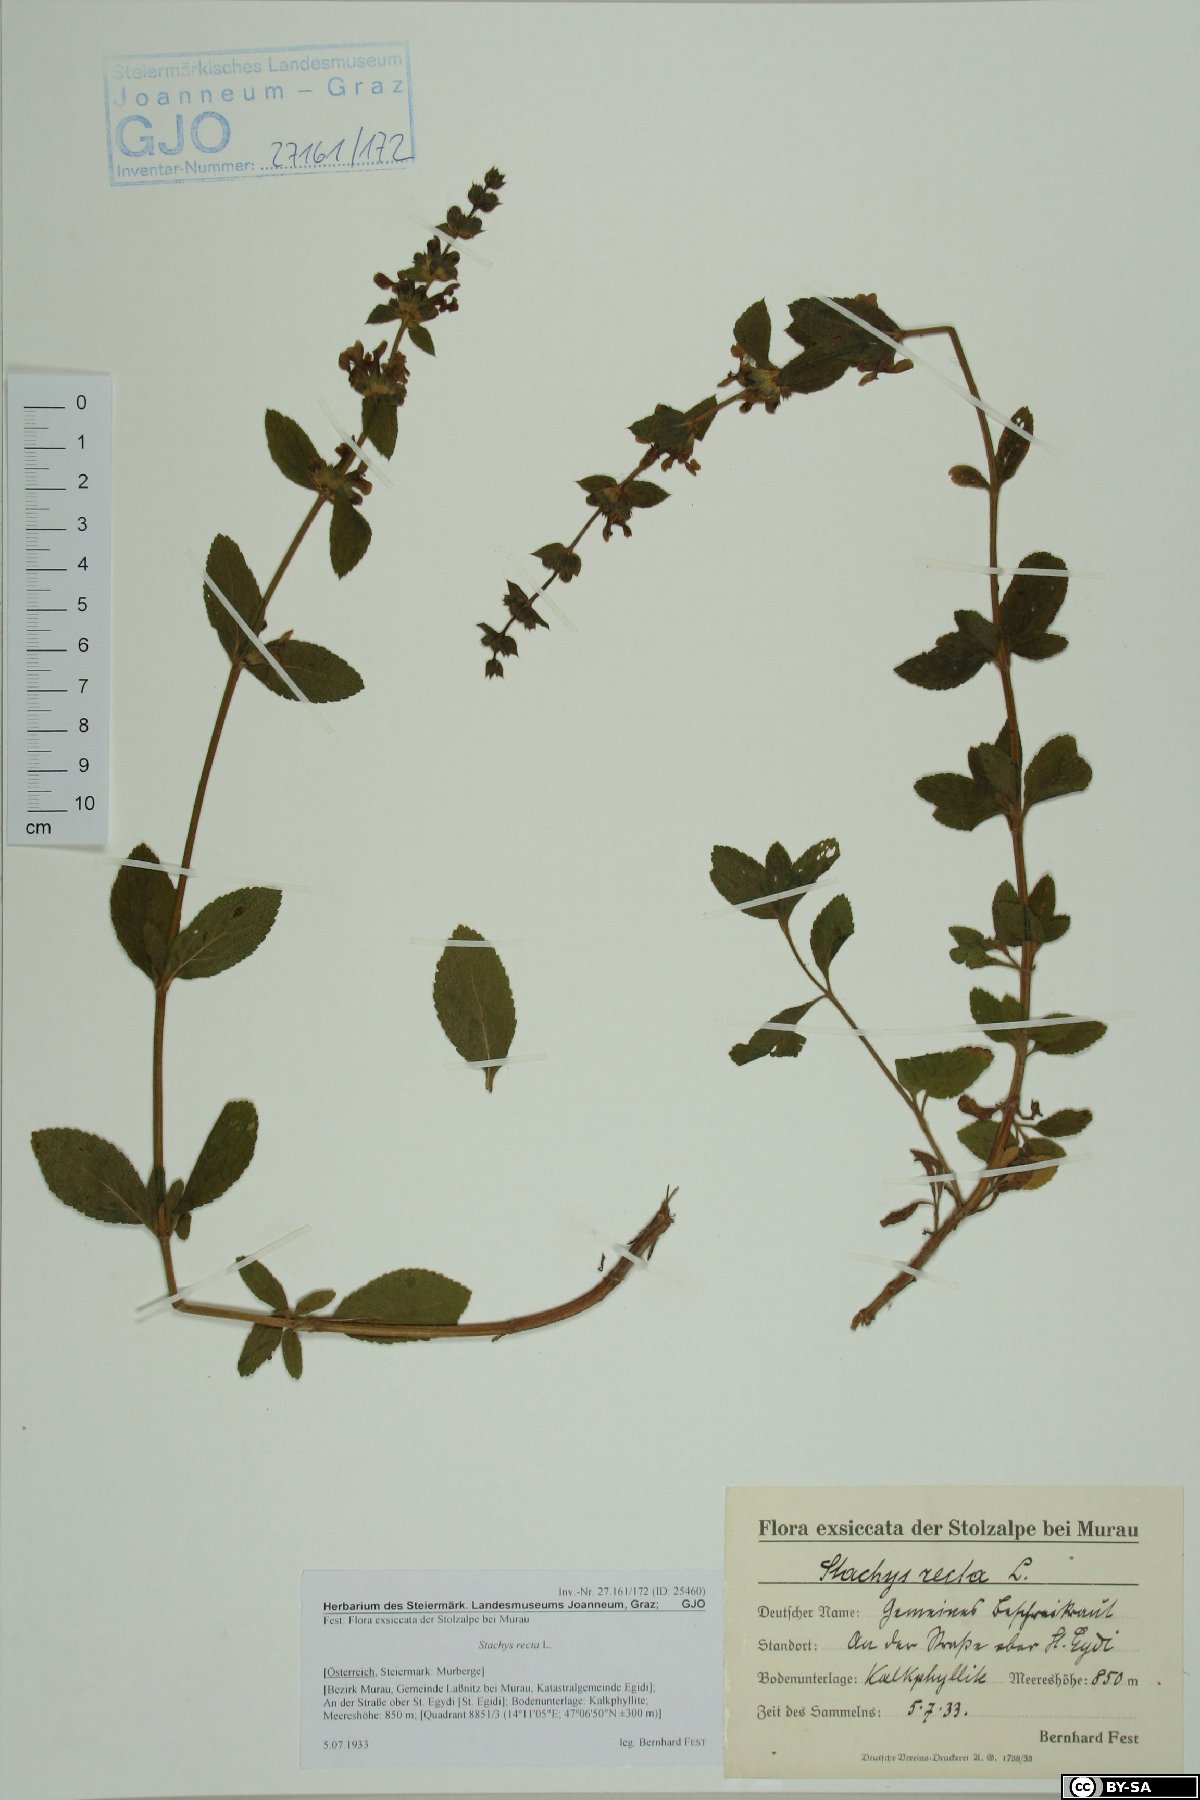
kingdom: Plantae
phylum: Tracheophyta
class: Magnoliopsida
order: Lamiales
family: Lamiaceae
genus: Stachys
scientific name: Stachys recta
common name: Perennial yellow-woundwort
